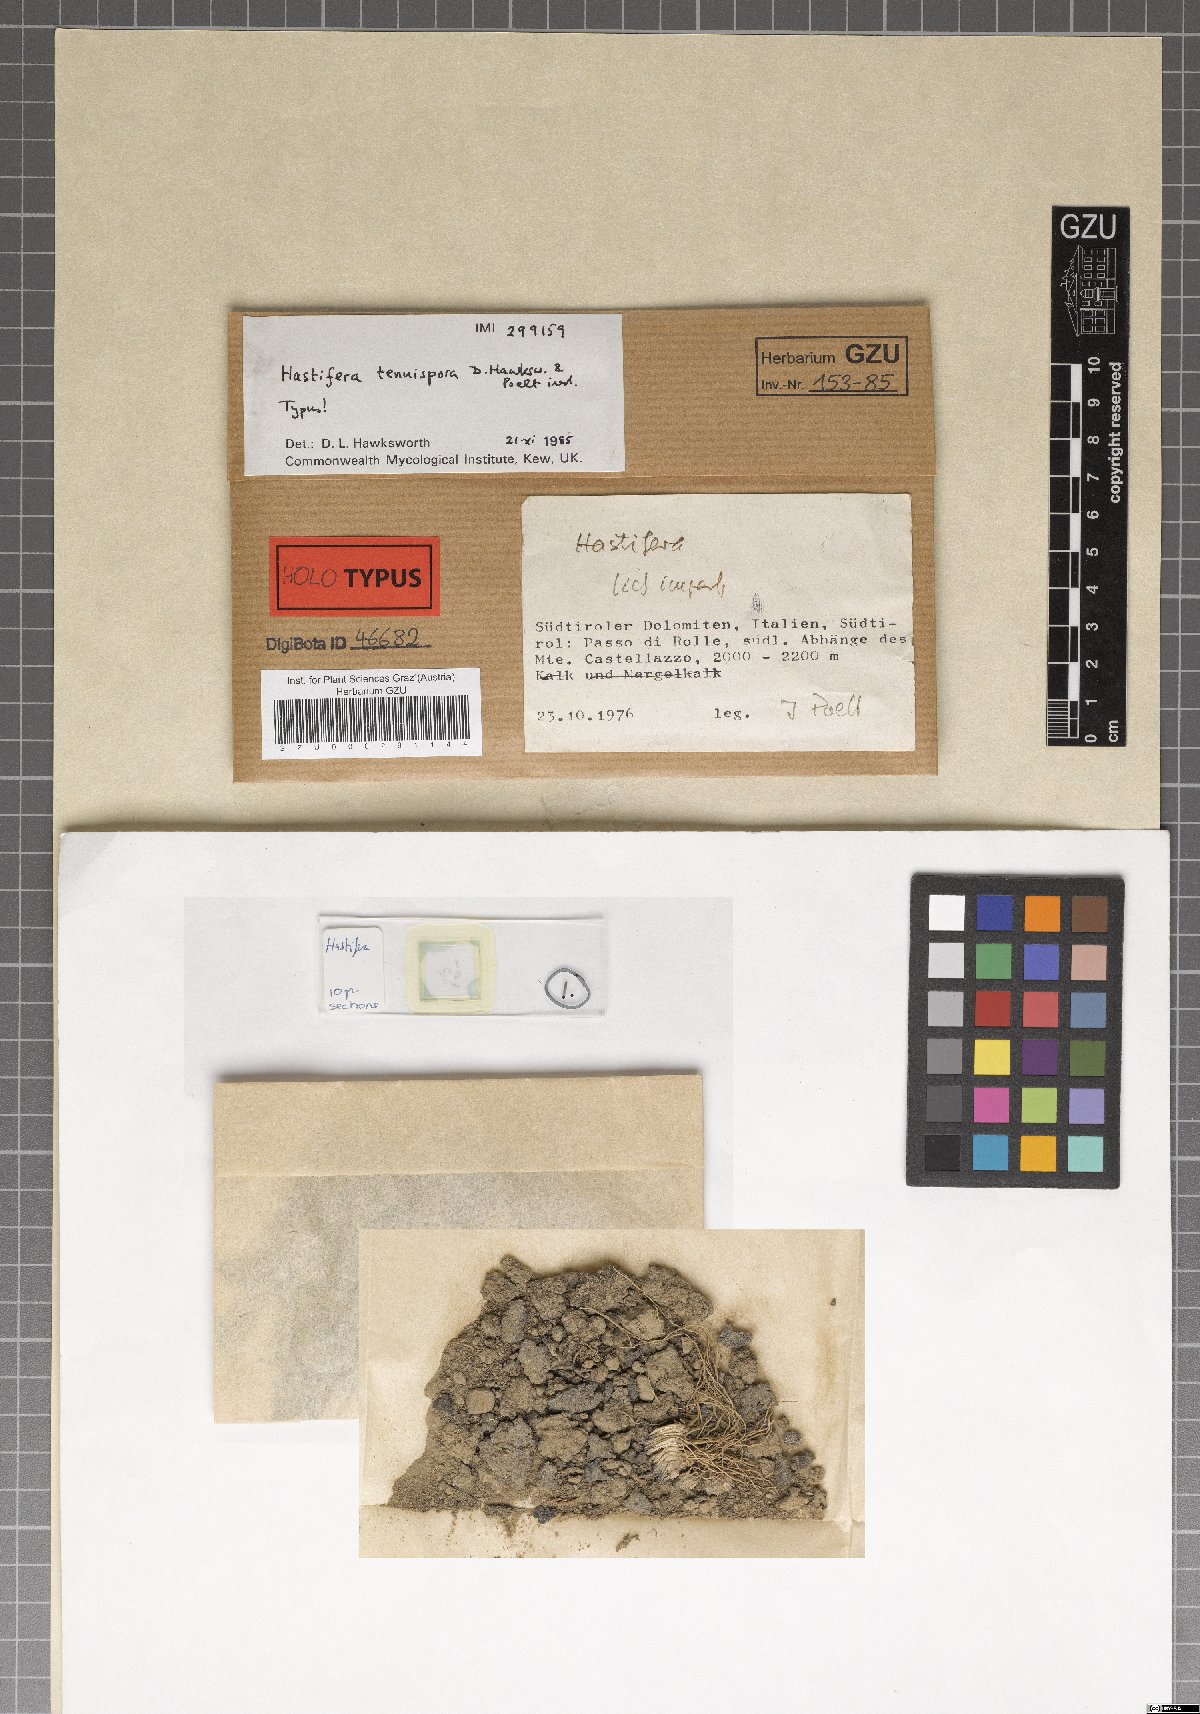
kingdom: Fungi
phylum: Ascomycota
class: Lecanoromycetes
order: Lecanorales
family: Byssolomataceae
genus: Micarea
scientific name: Micarea cinerea
